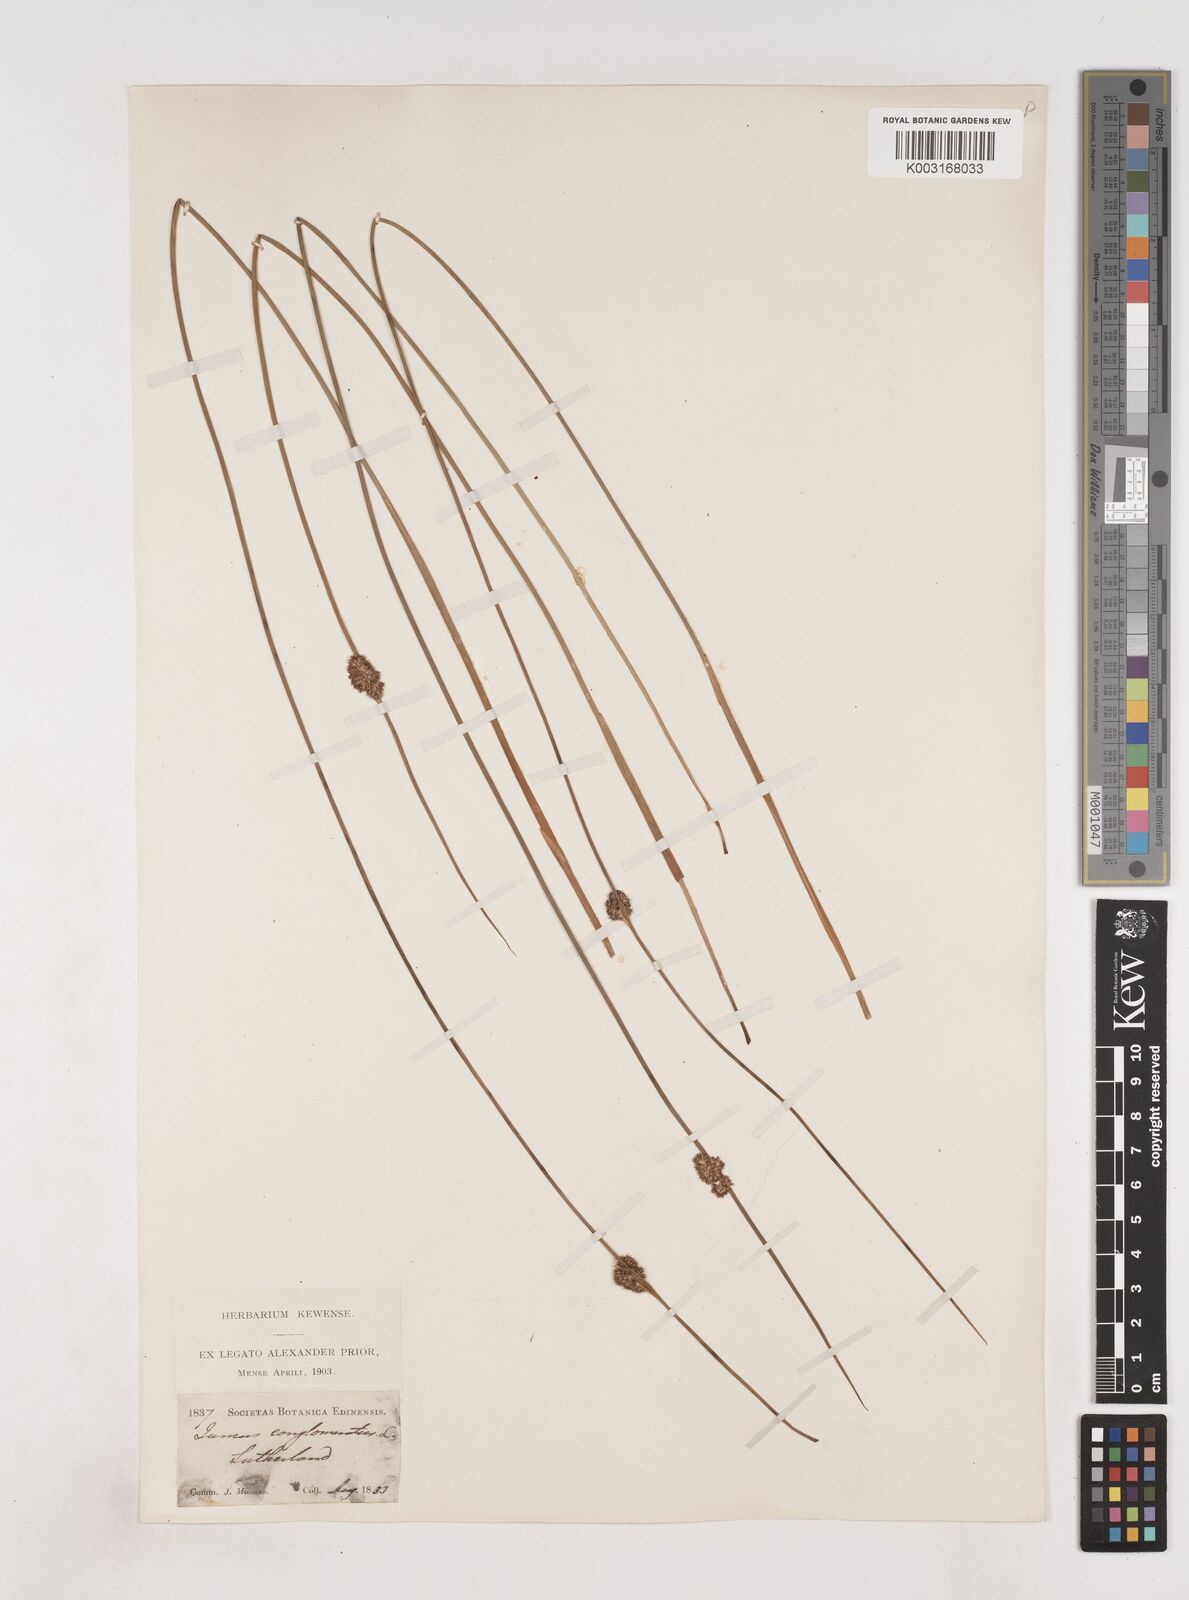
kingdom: Plantae
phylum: Tracheophyta
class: Liliopsida
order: Poales
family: Juncaceae
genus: Juncus
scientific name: Juncus conglomeratus
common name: Compact rush
